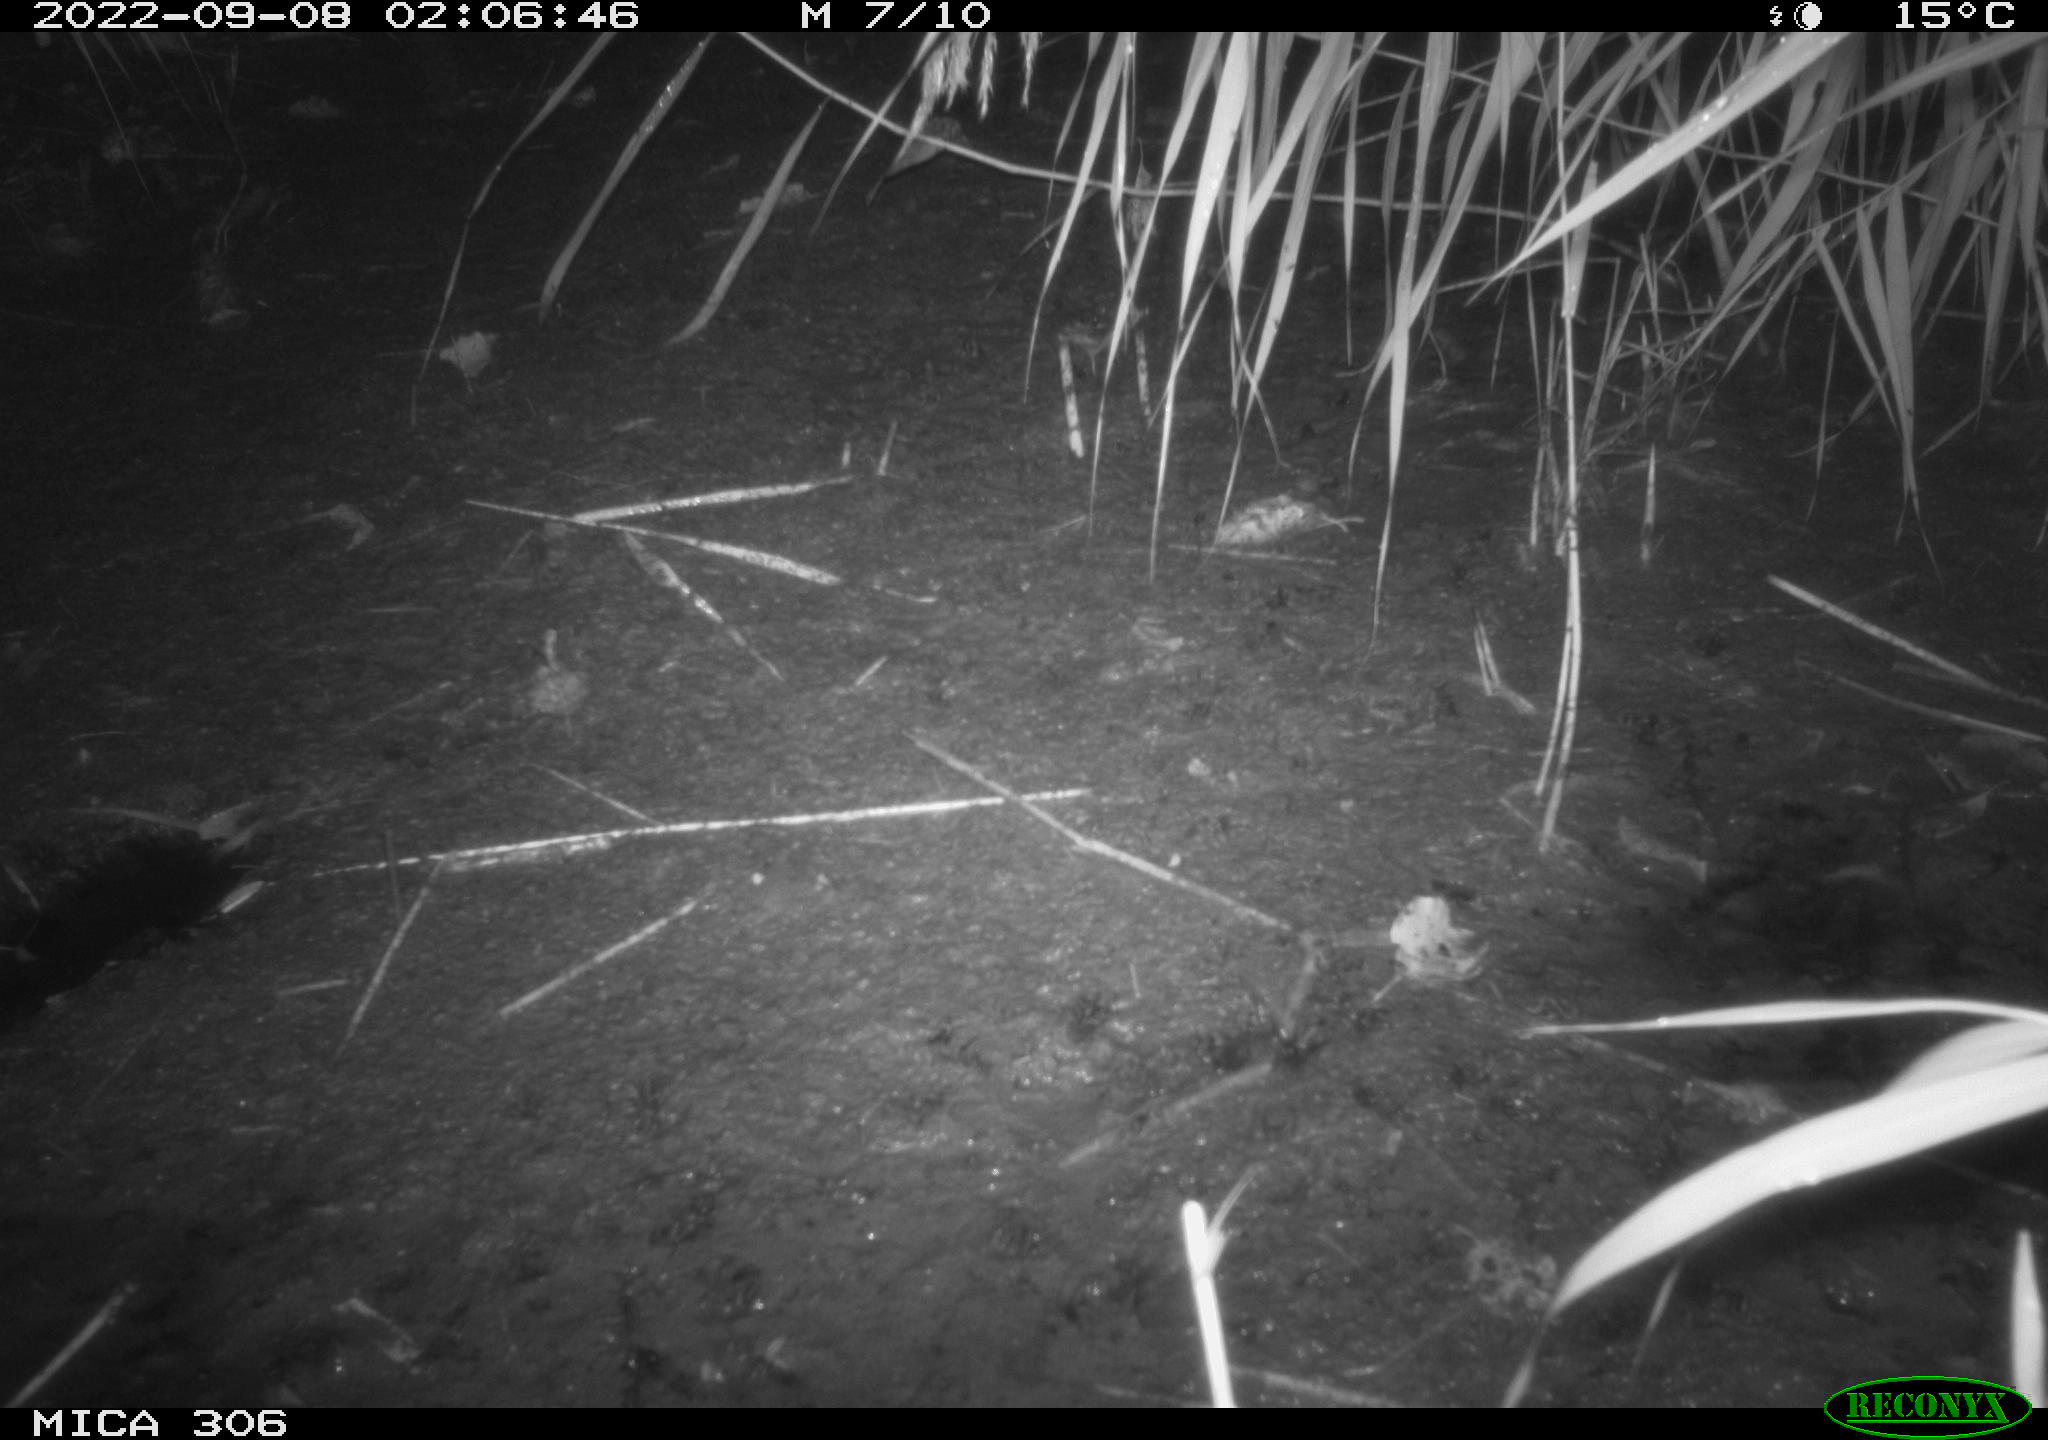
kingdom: Animalia
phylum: Chordata
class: Mammalia
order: Rodentia
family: Muridae
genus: Rattus
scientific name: Rattus norvegicus
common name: Brown rat
